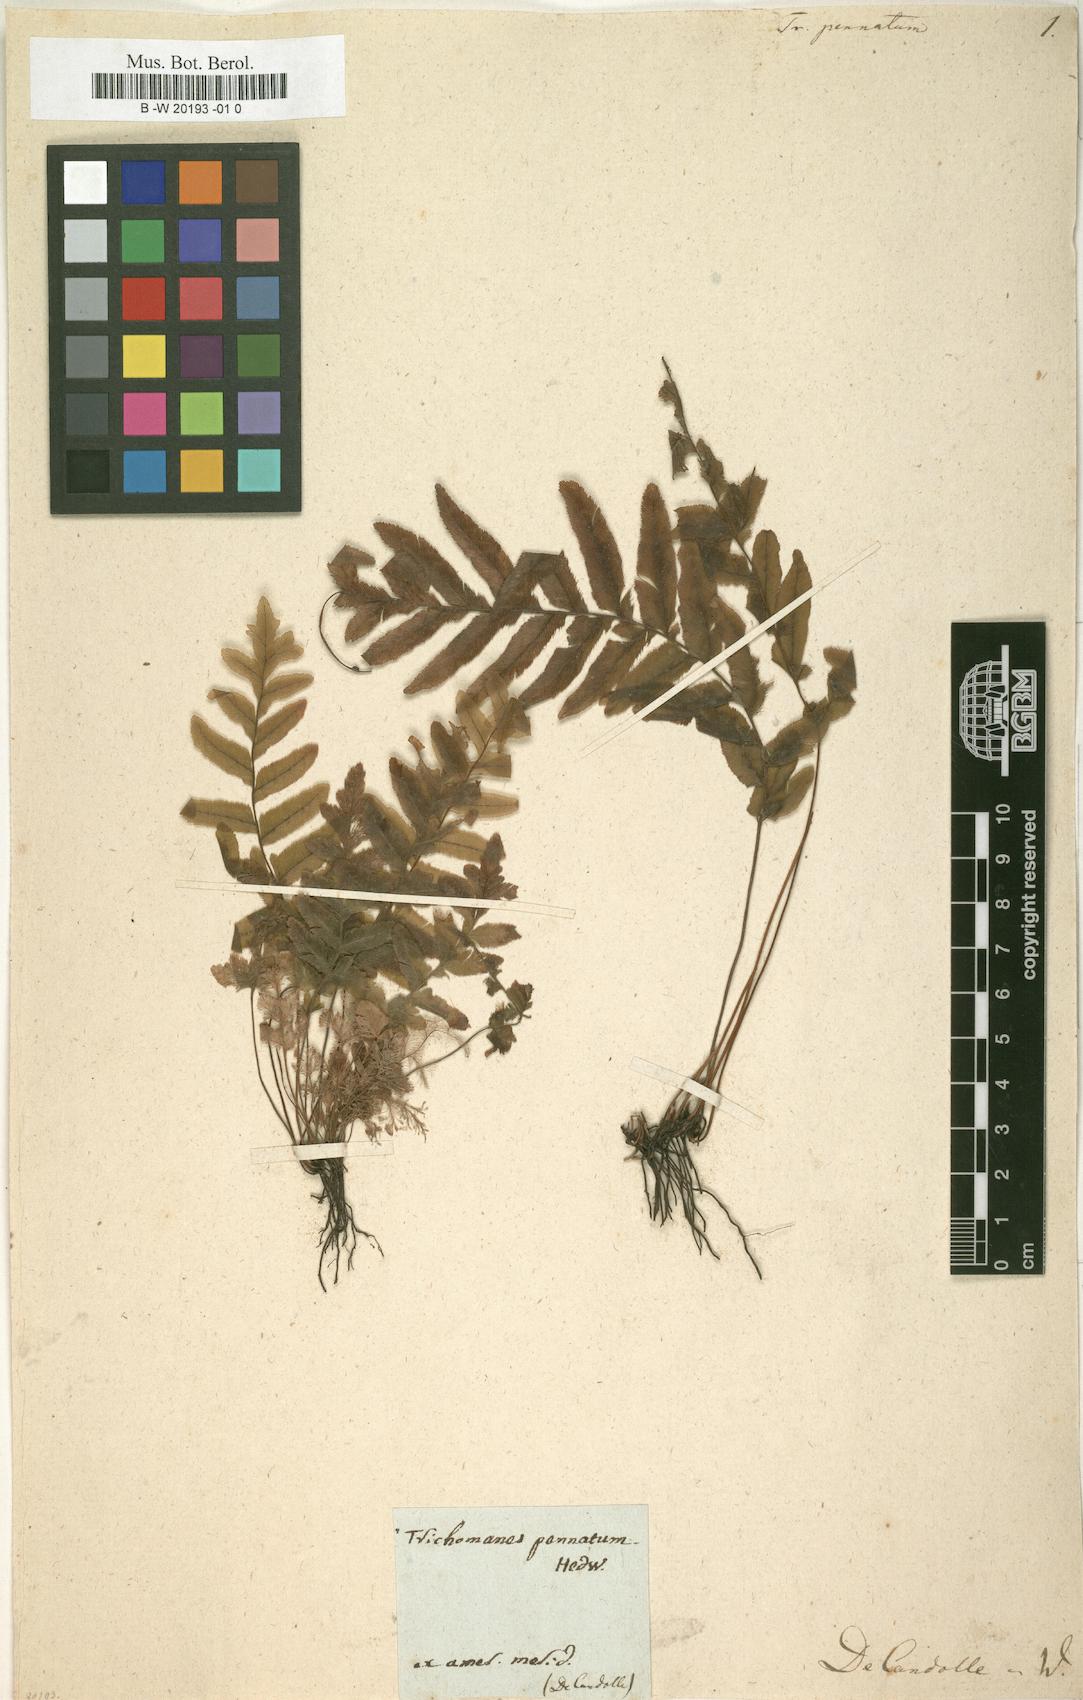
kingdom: Plantae
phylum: Tracheophyta
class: Polypodiopsida
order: Hymenophyllales
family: Hymenophyllaceae
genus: Trichomanes
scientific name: Trichomanes pinnatum
